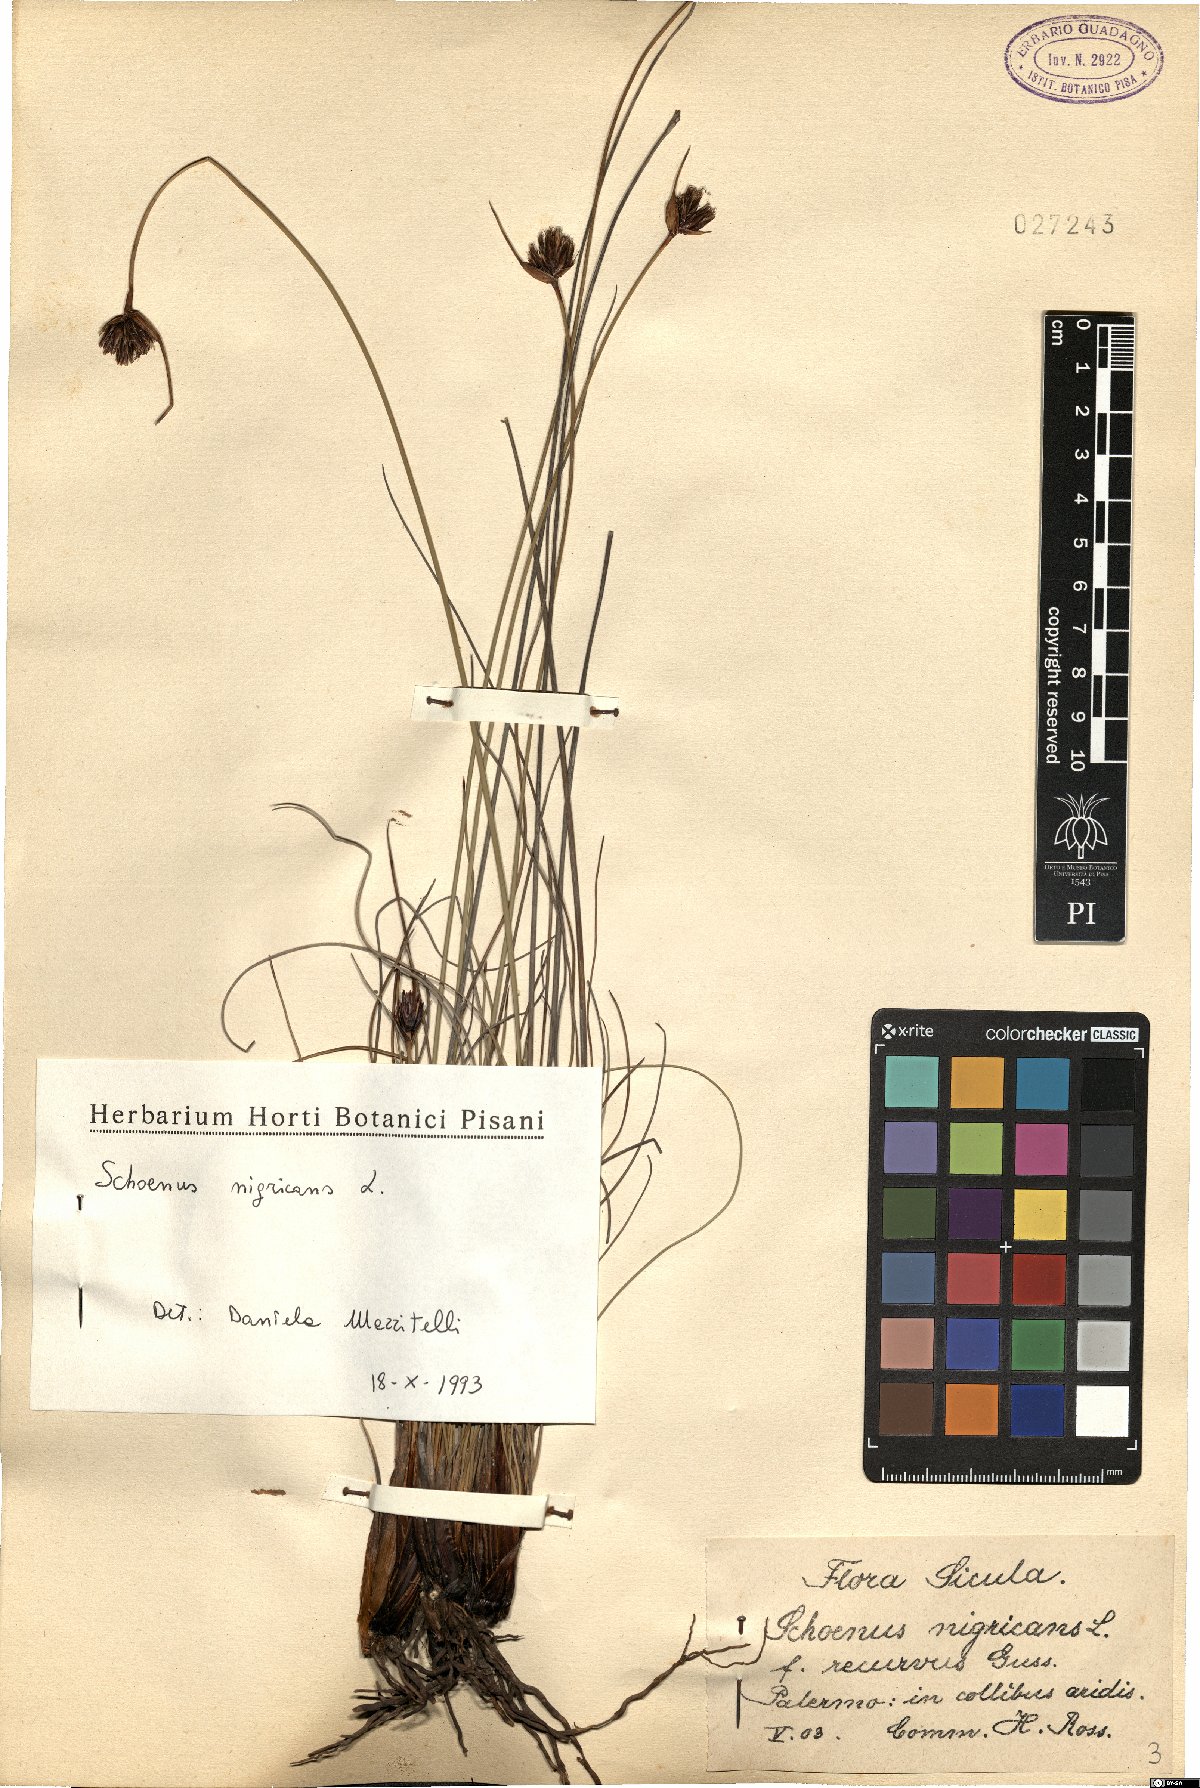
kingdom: Plantae
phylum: Tracheophyta
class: Liliopsida
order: Poales
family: Cyperaceae
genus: Schoenus
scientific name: Schoenus nigricans
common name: Black bog-rush
